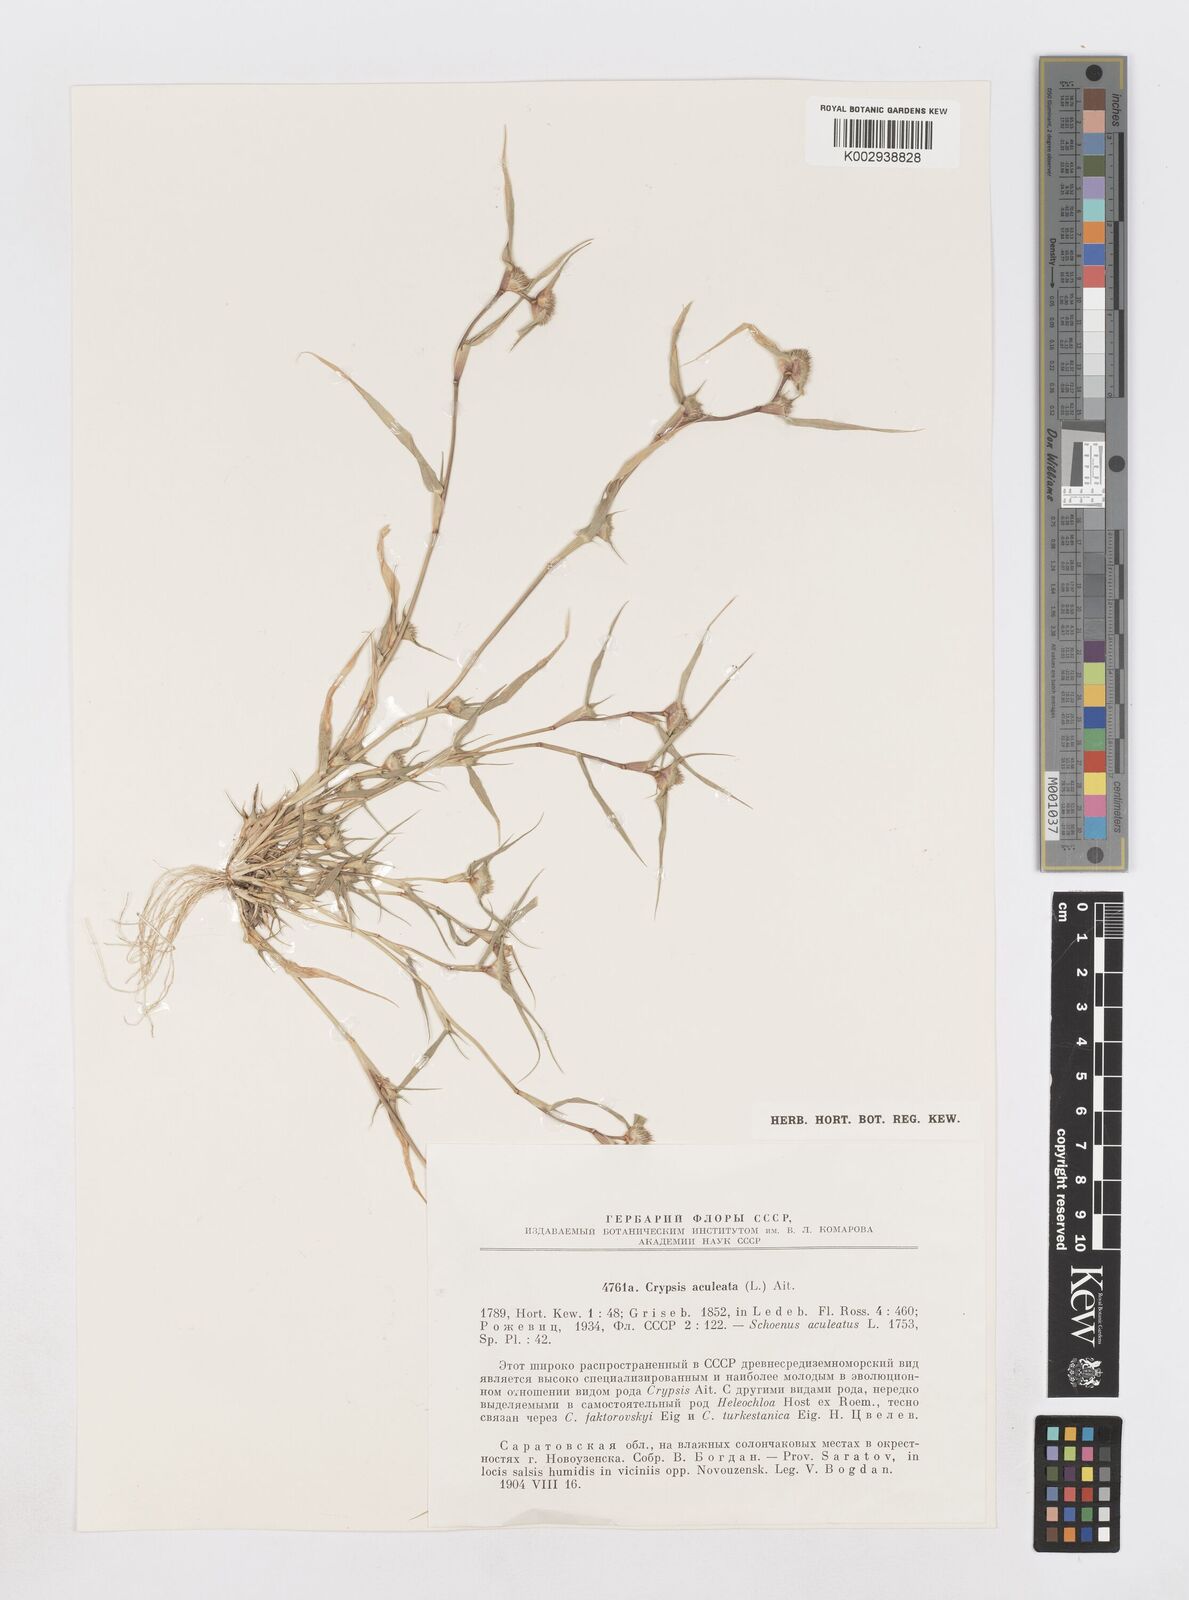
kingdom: Plantae
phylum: Tracheophyta
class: Liliopsida
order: Poales
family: Poaceae
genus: Sporobolus
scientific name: Sporobolus aculeatus
